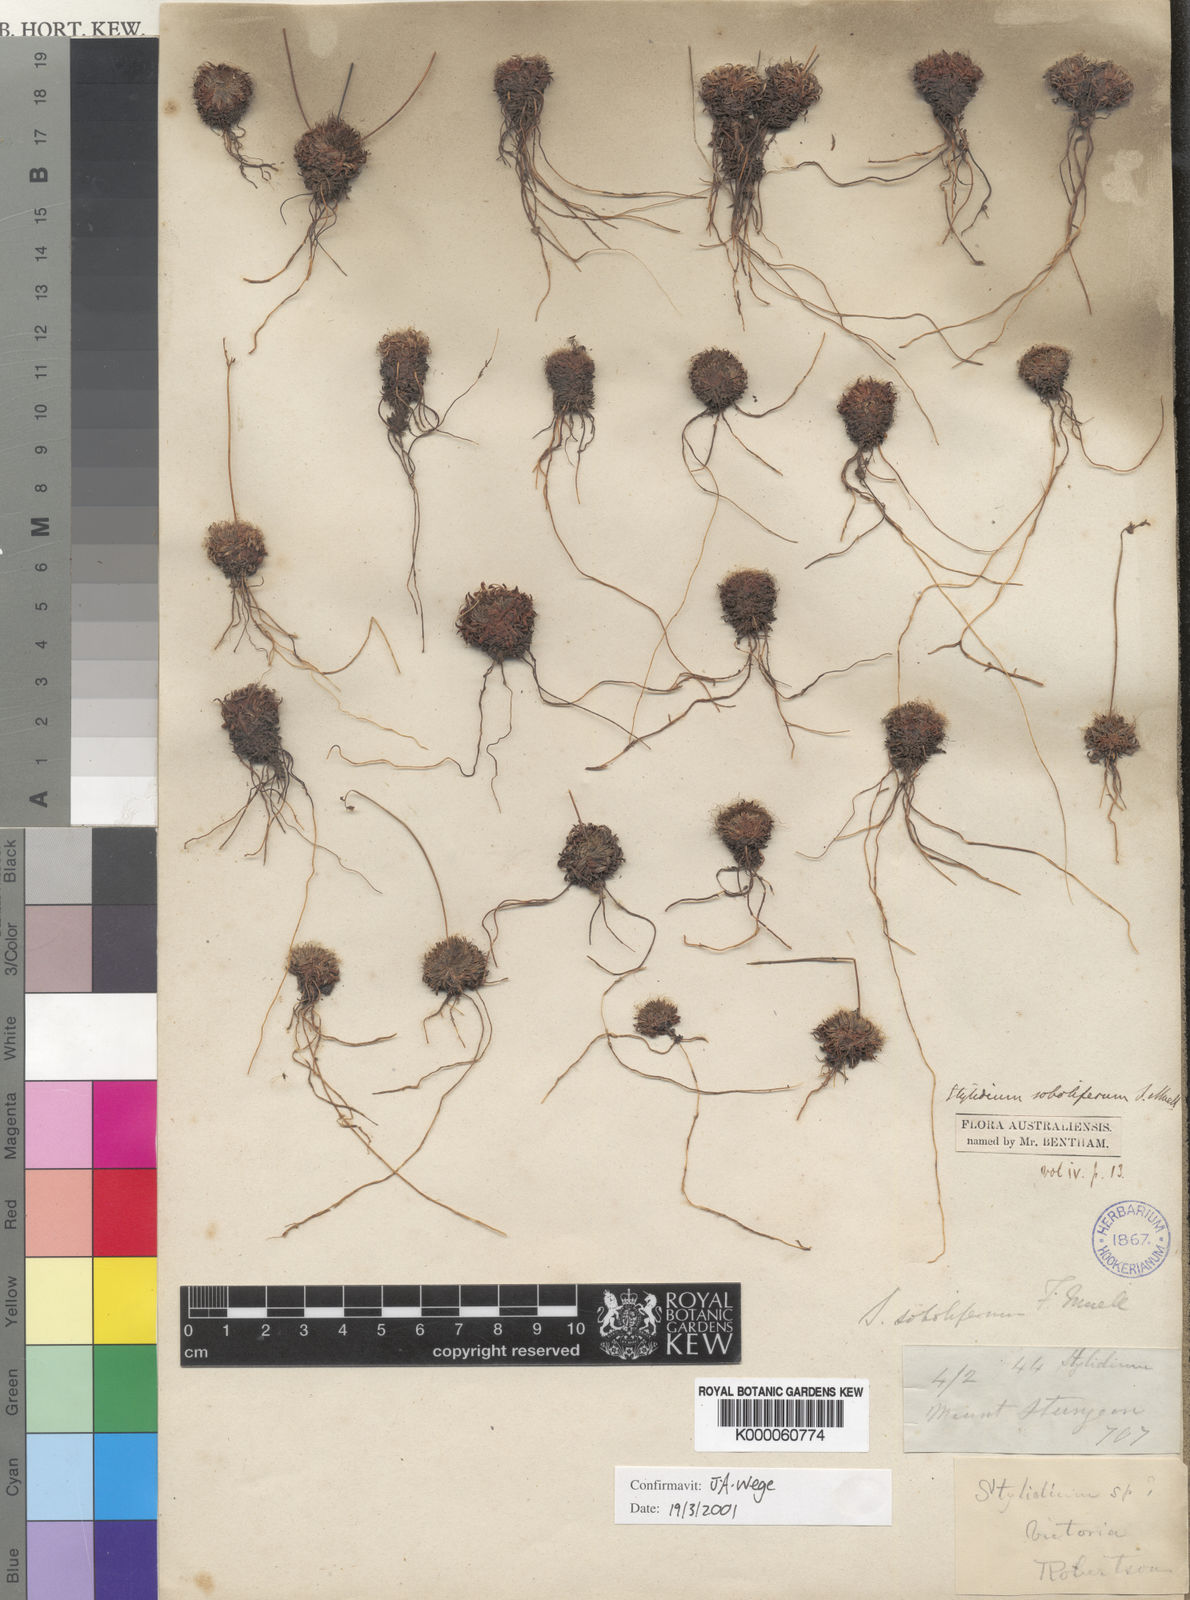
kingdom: Plantae
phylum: Tracheophyta
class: Magnoliopsida
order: Asterales
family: Stylidiaceae
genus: Stylidium
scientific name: Stylidium soboliferum
